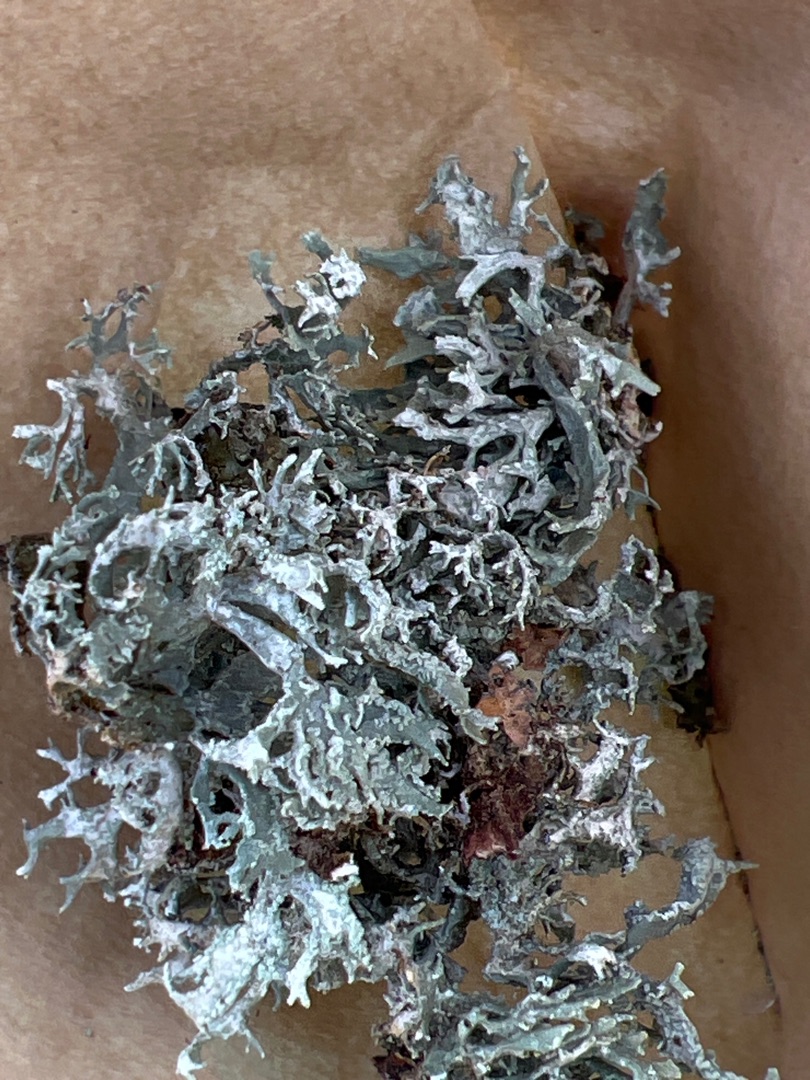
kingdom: Fungi
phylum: Ascomycota
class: Lecanoromycetes
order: Lecanorales
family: Parmeliaceae
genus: Evernia
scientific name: Evernia prunastri
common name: Almindelig slåenlav
